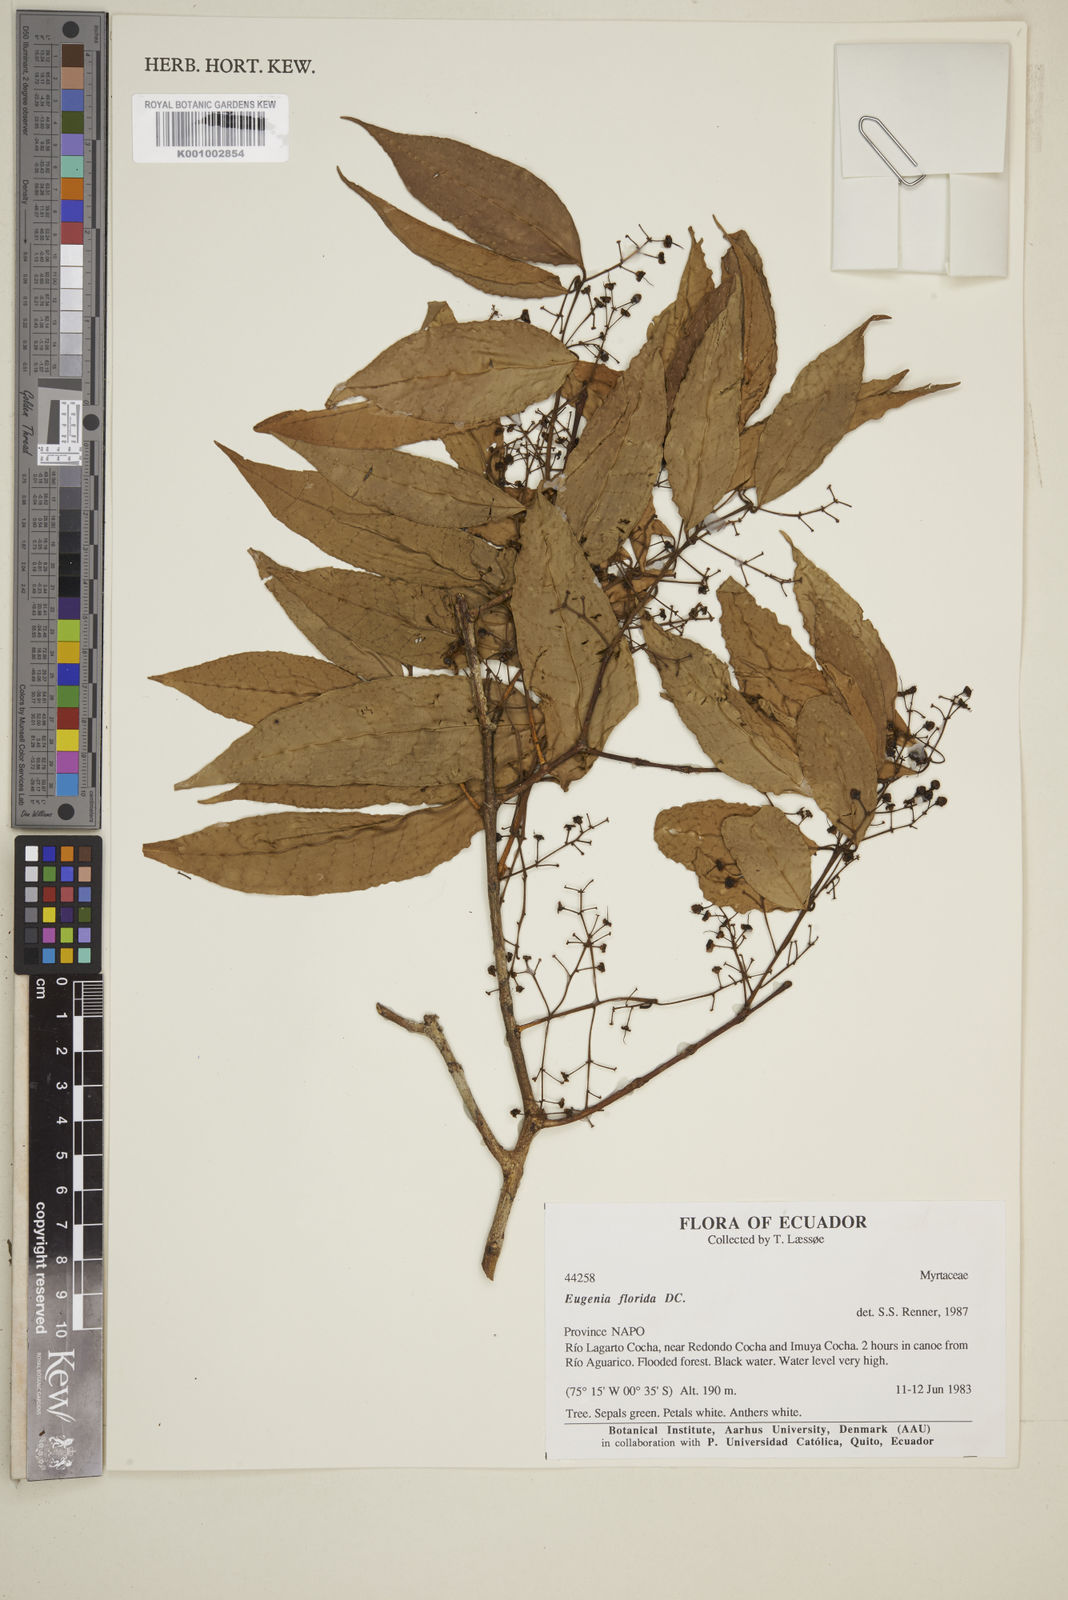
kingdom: Plantae
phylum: Tracheophyta
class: Magnoliopsida
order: Myrtales
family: Myrtaceae
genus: Eugenia
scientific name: Eugenia florida
